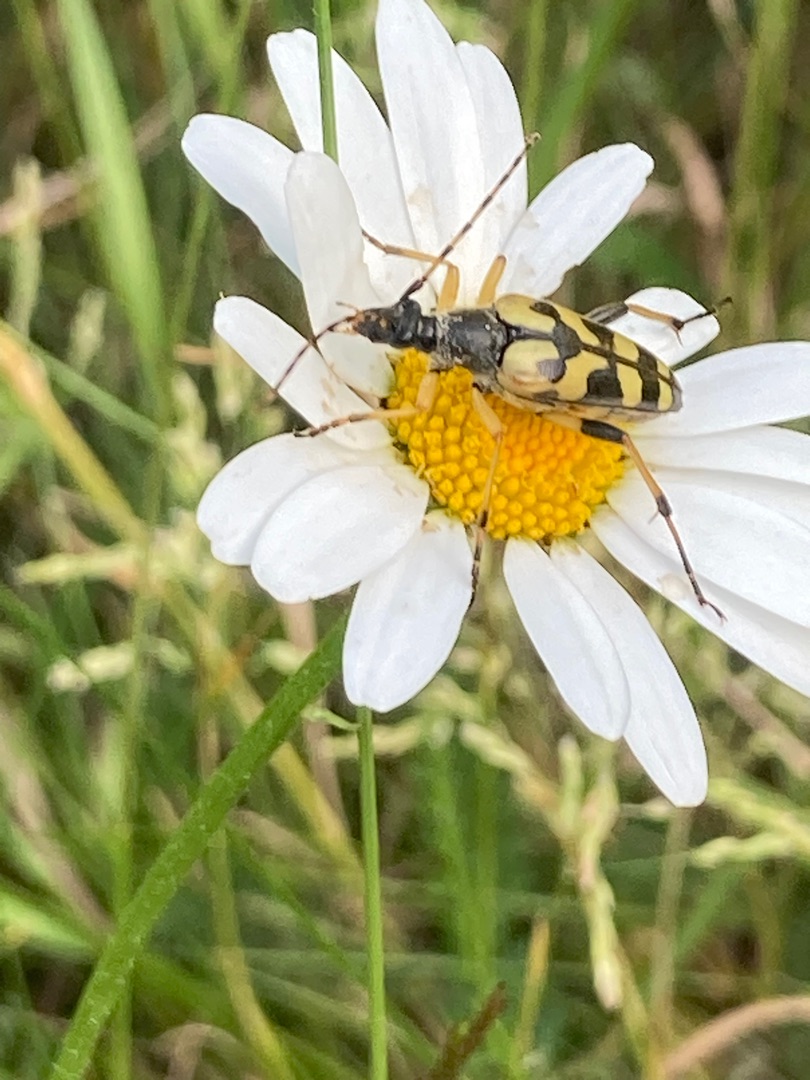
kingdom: Animalia
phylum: Arthropoda
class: Insecta
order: Coleoptera
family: Cerambycidae
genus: Rutpela
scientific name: Rutpela maculata
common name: Sydlig blomsterbuk
